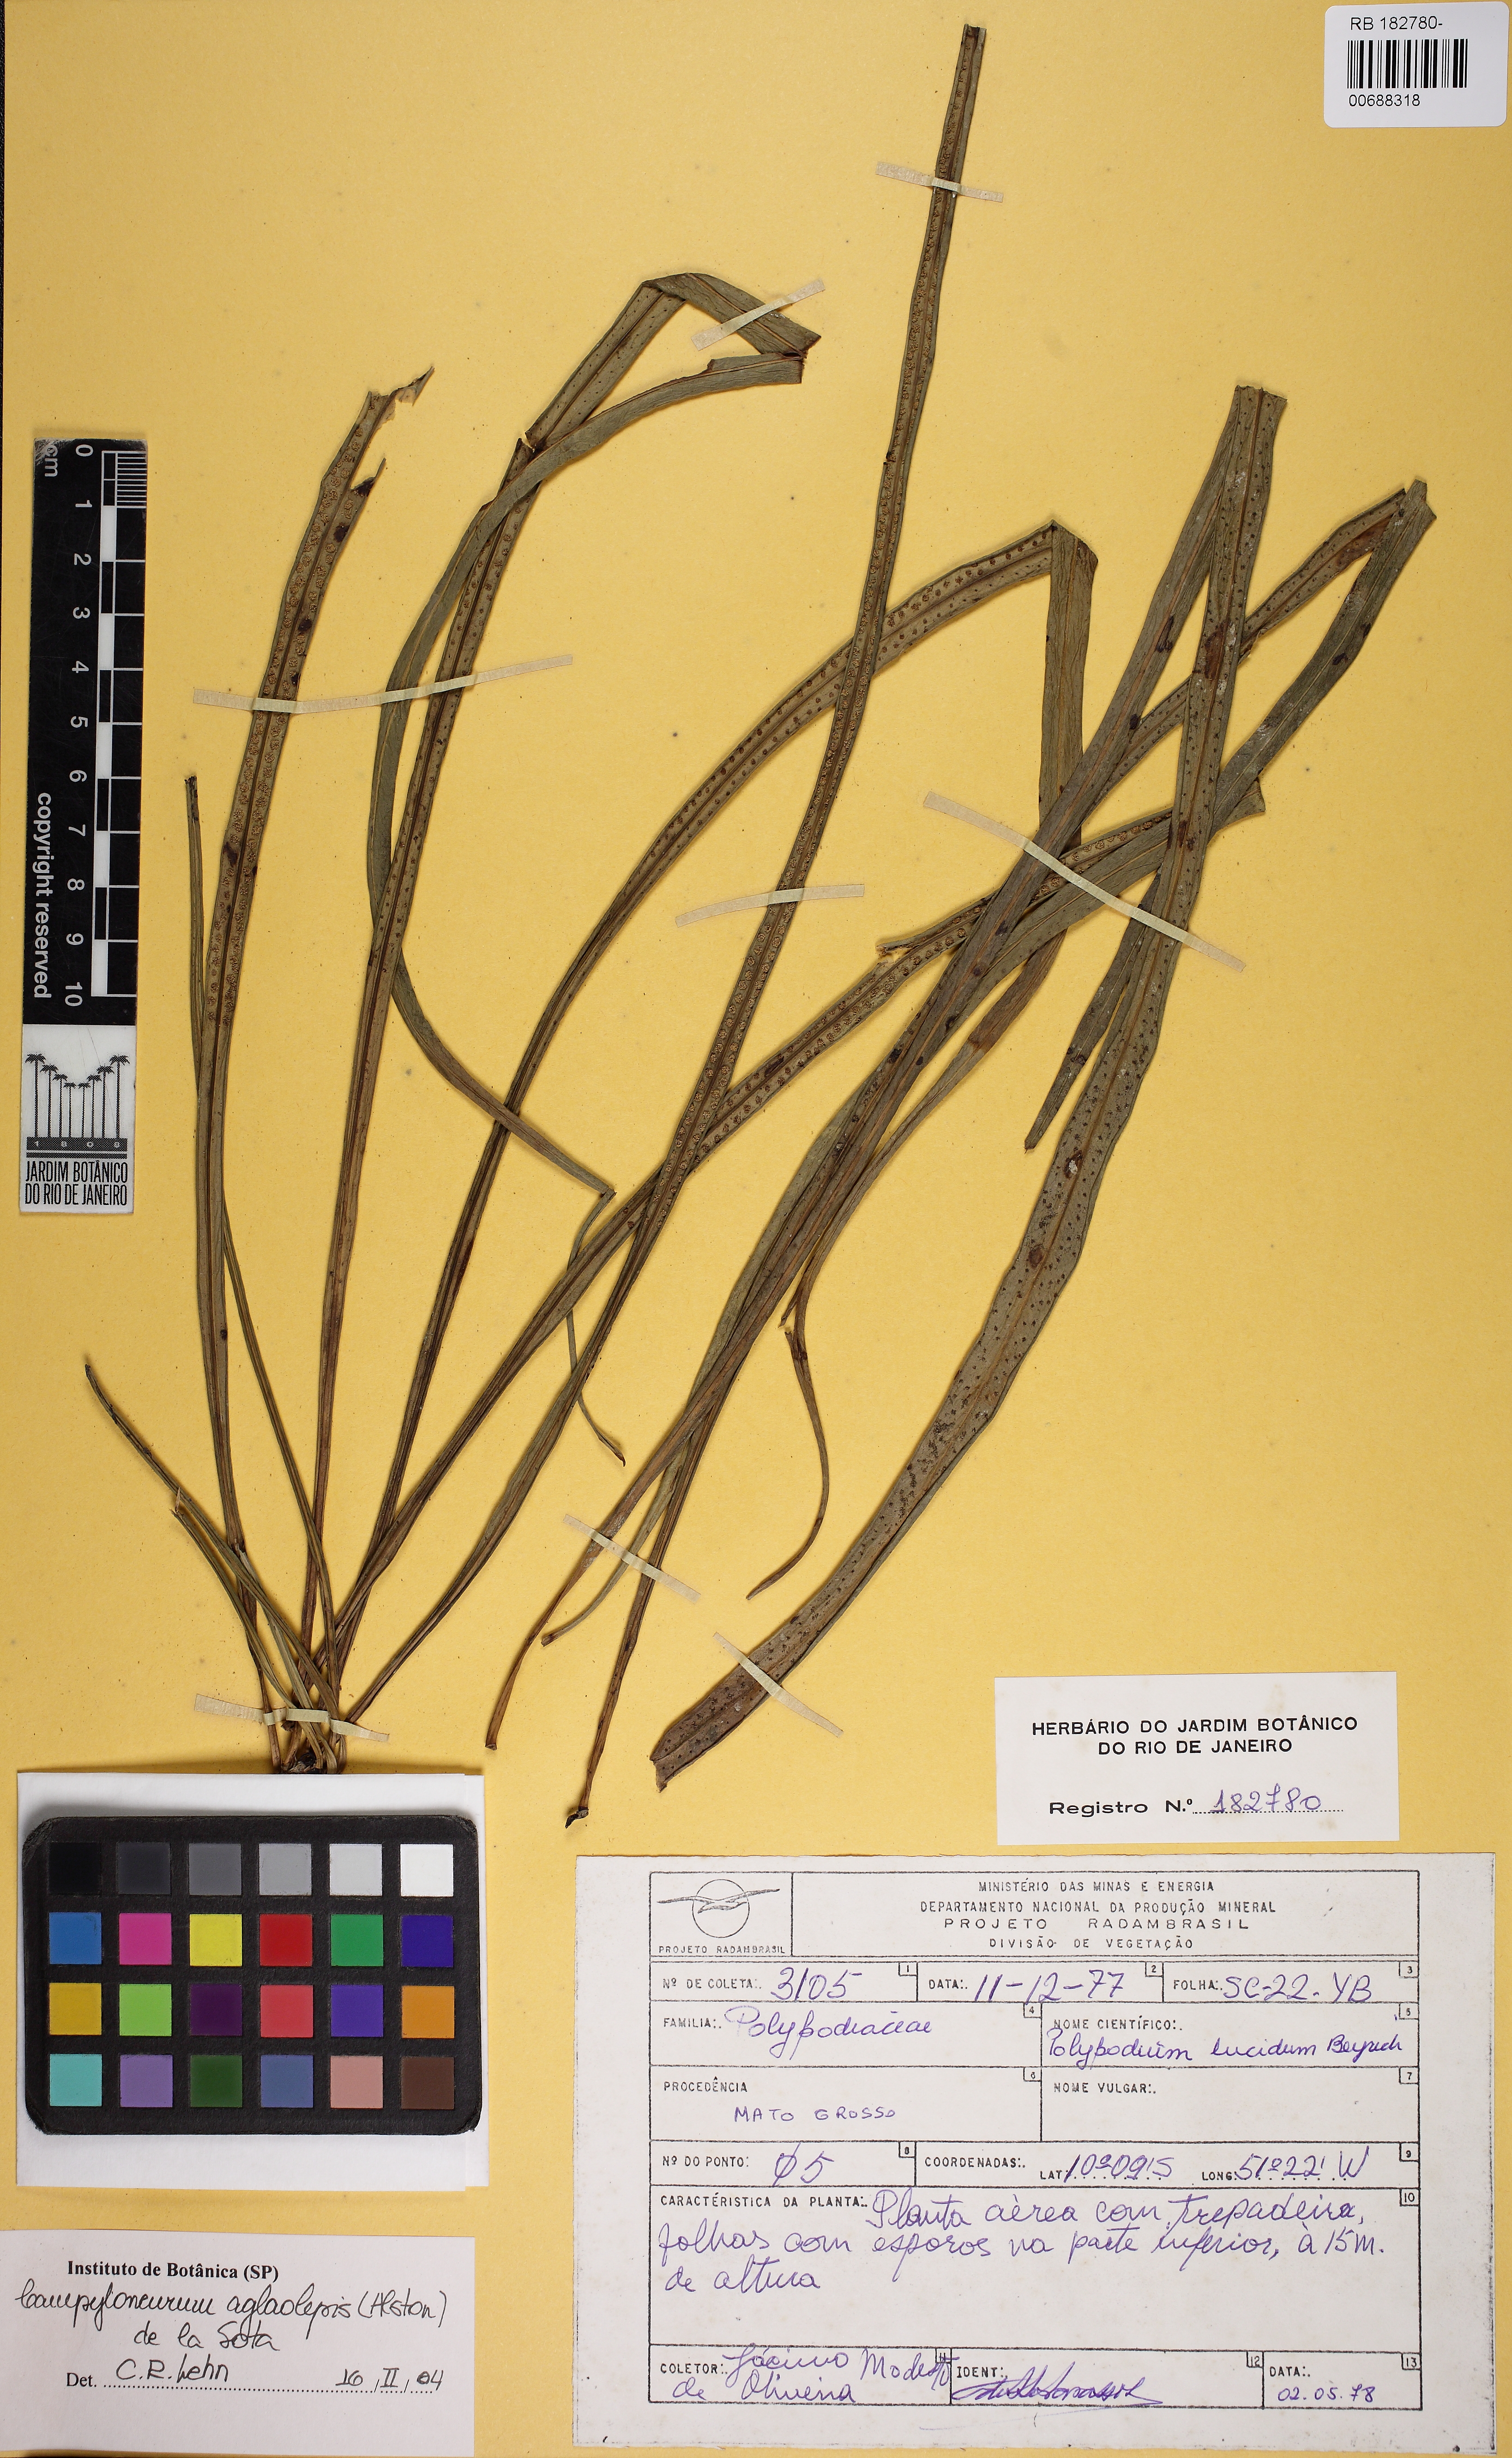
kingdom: Plantae
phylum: Tracheophyta
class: Polypodiopsida
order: Polypodiales
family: Polypodiaceae
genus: Campyloneurum
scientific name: Campyloneurum aglaolepis
